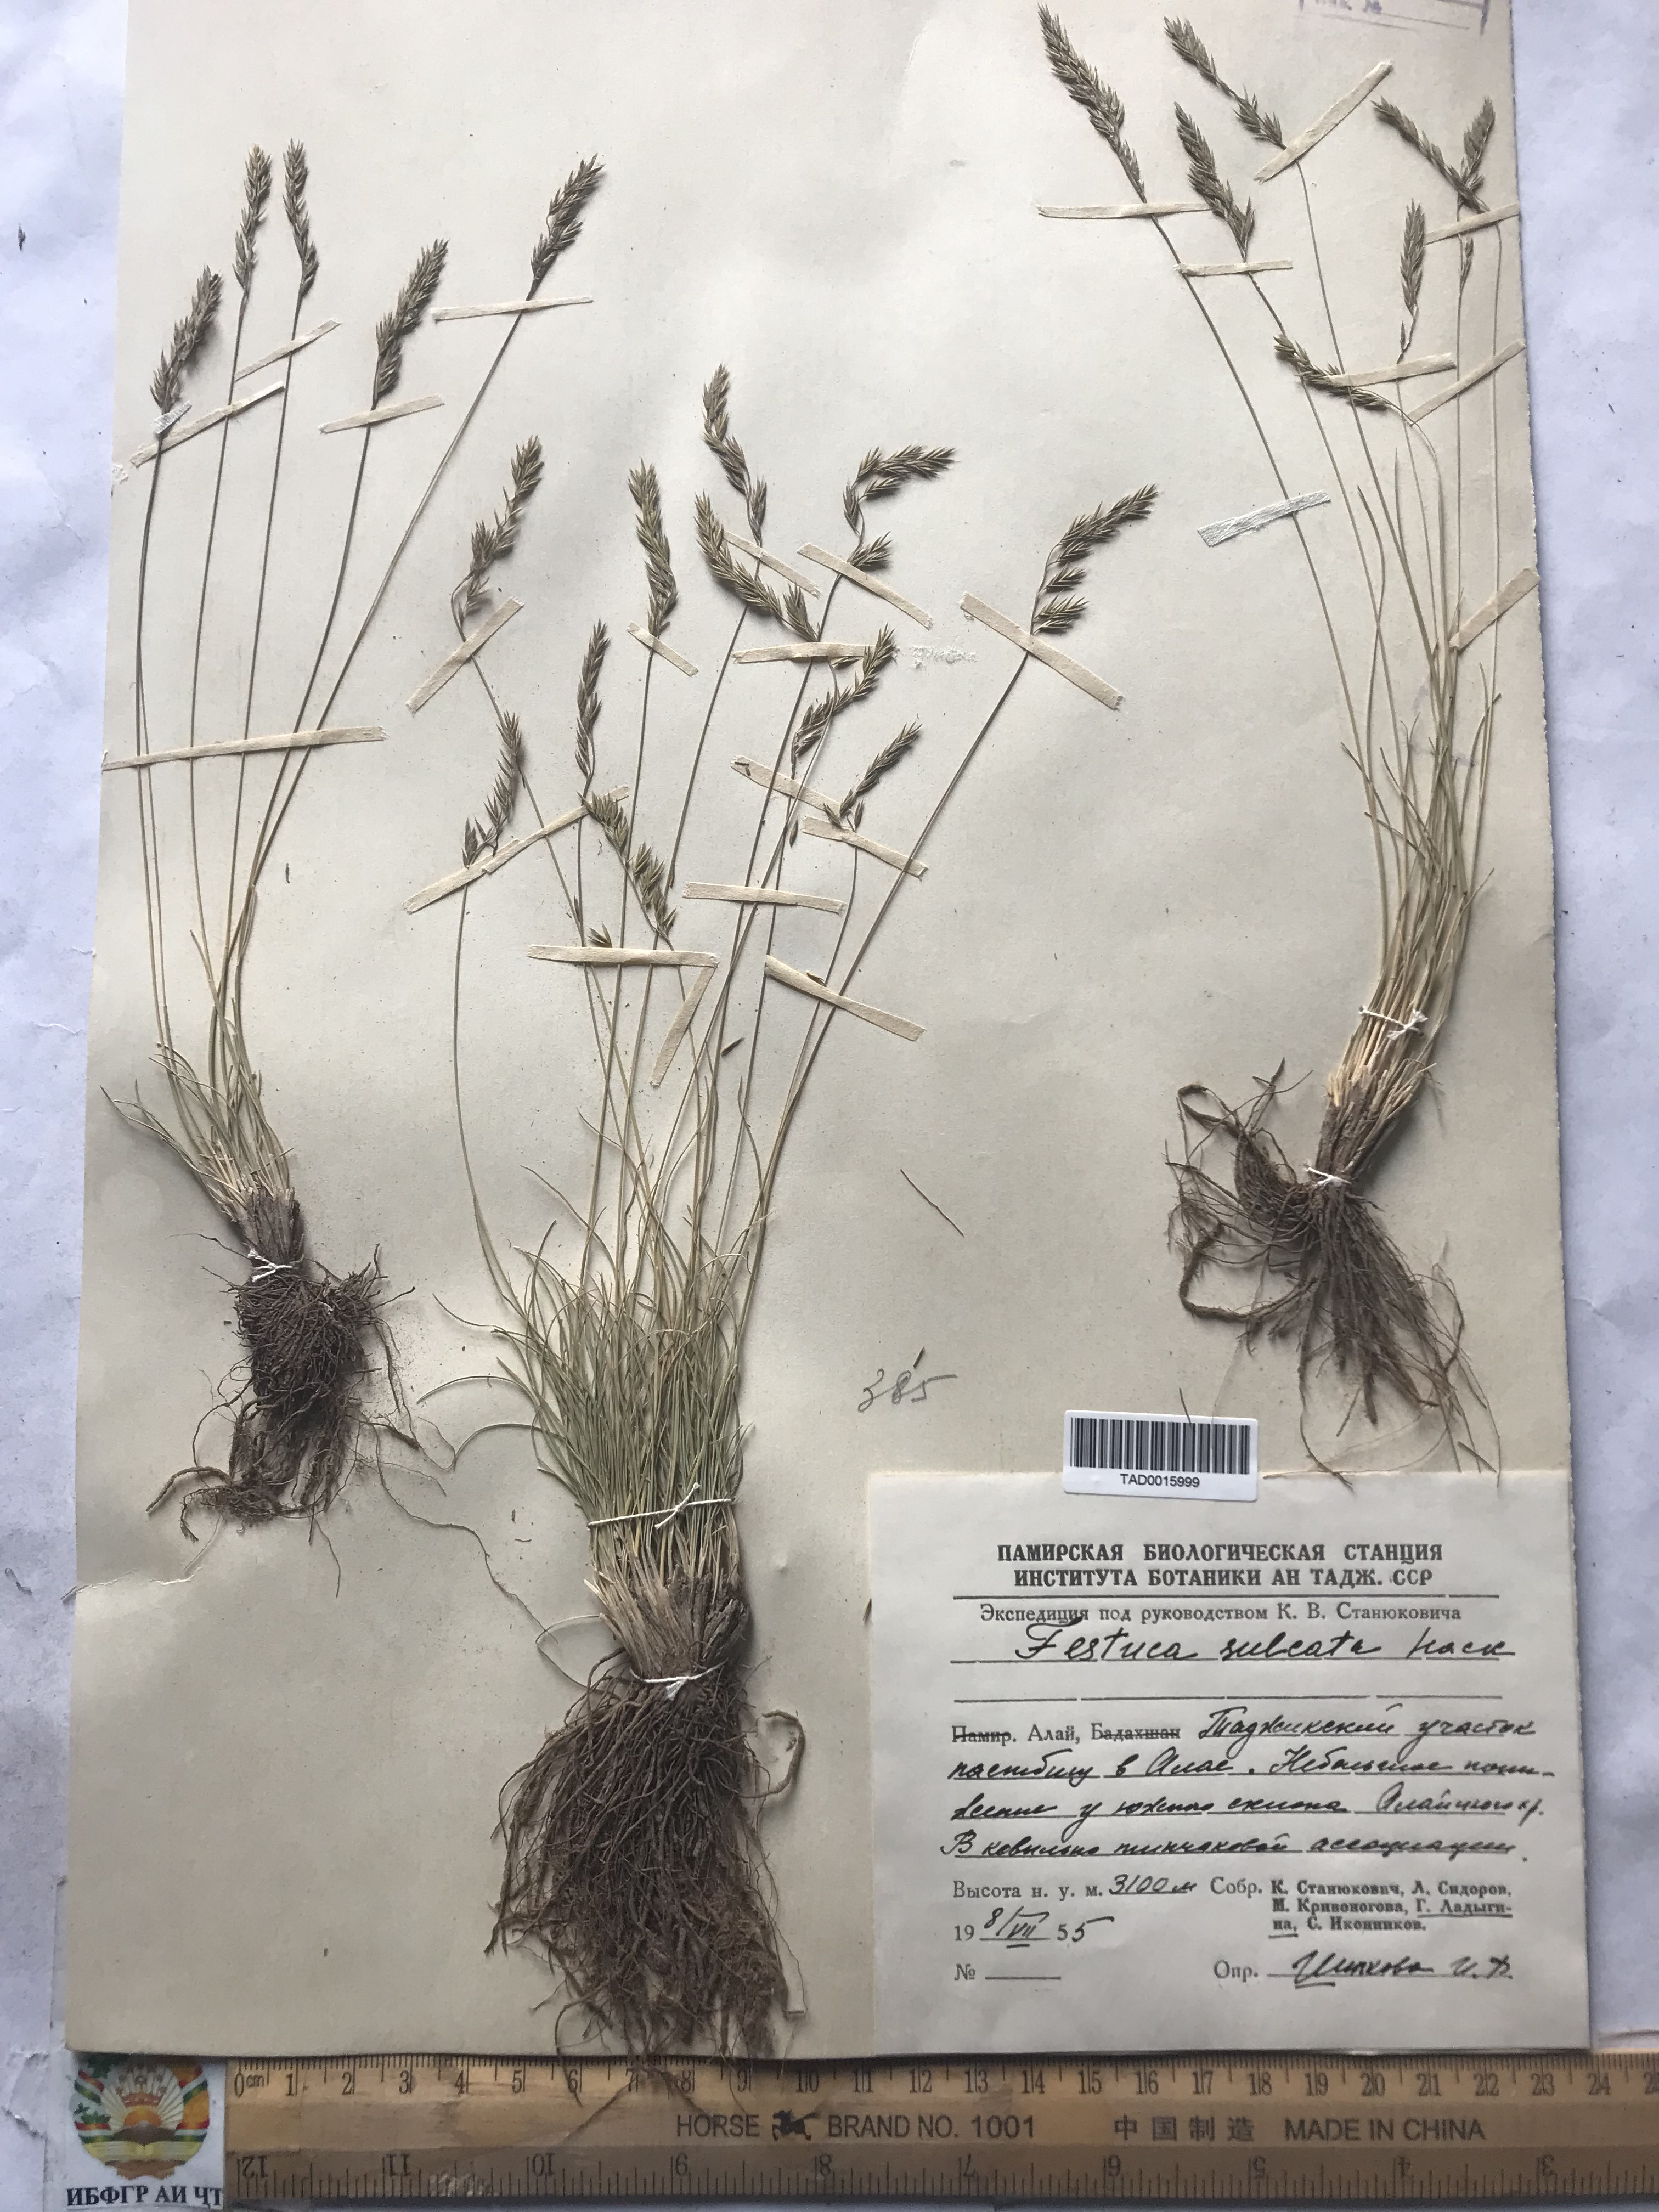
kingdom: Plantae
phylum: Tracheophyta
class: Liliopsida
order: Poales
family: Poaceae
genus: Festuca
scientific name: Festuca sulcata
